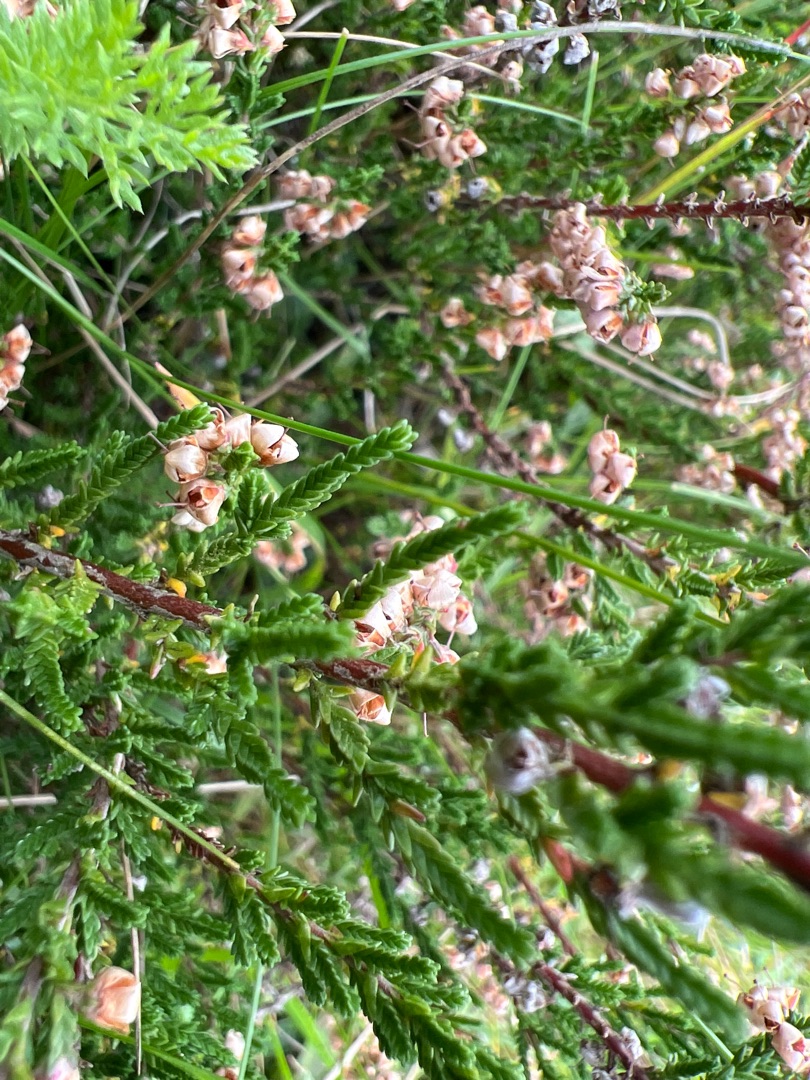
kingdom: Plantae
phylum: Tracheophyta
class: Magnoliopsida
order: Ericales
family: Ericaceae
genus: Calluna
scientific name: Calluna vulgaris
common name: Hedelyng
